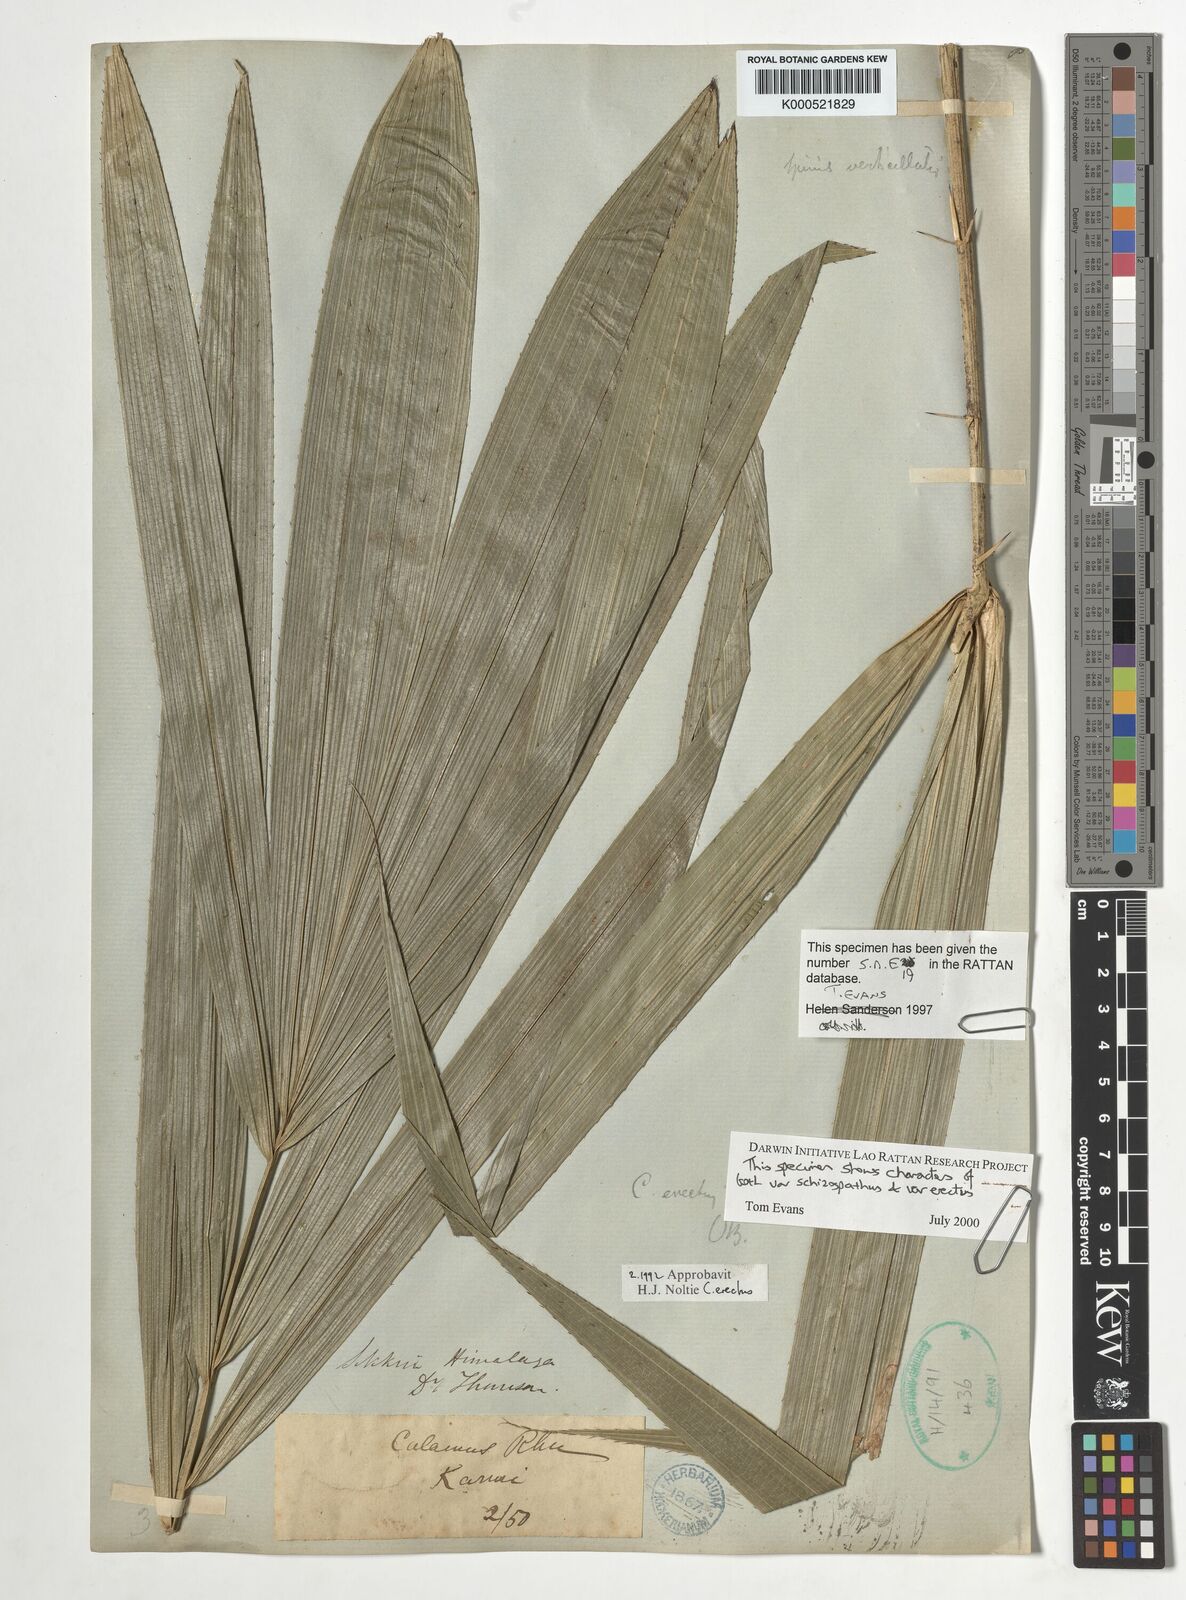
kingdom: Plantae
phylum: Tracheophyta
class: Liliopsida
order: Arecales
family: Arecaceae
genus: Calamus
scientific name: Calamus erectus
